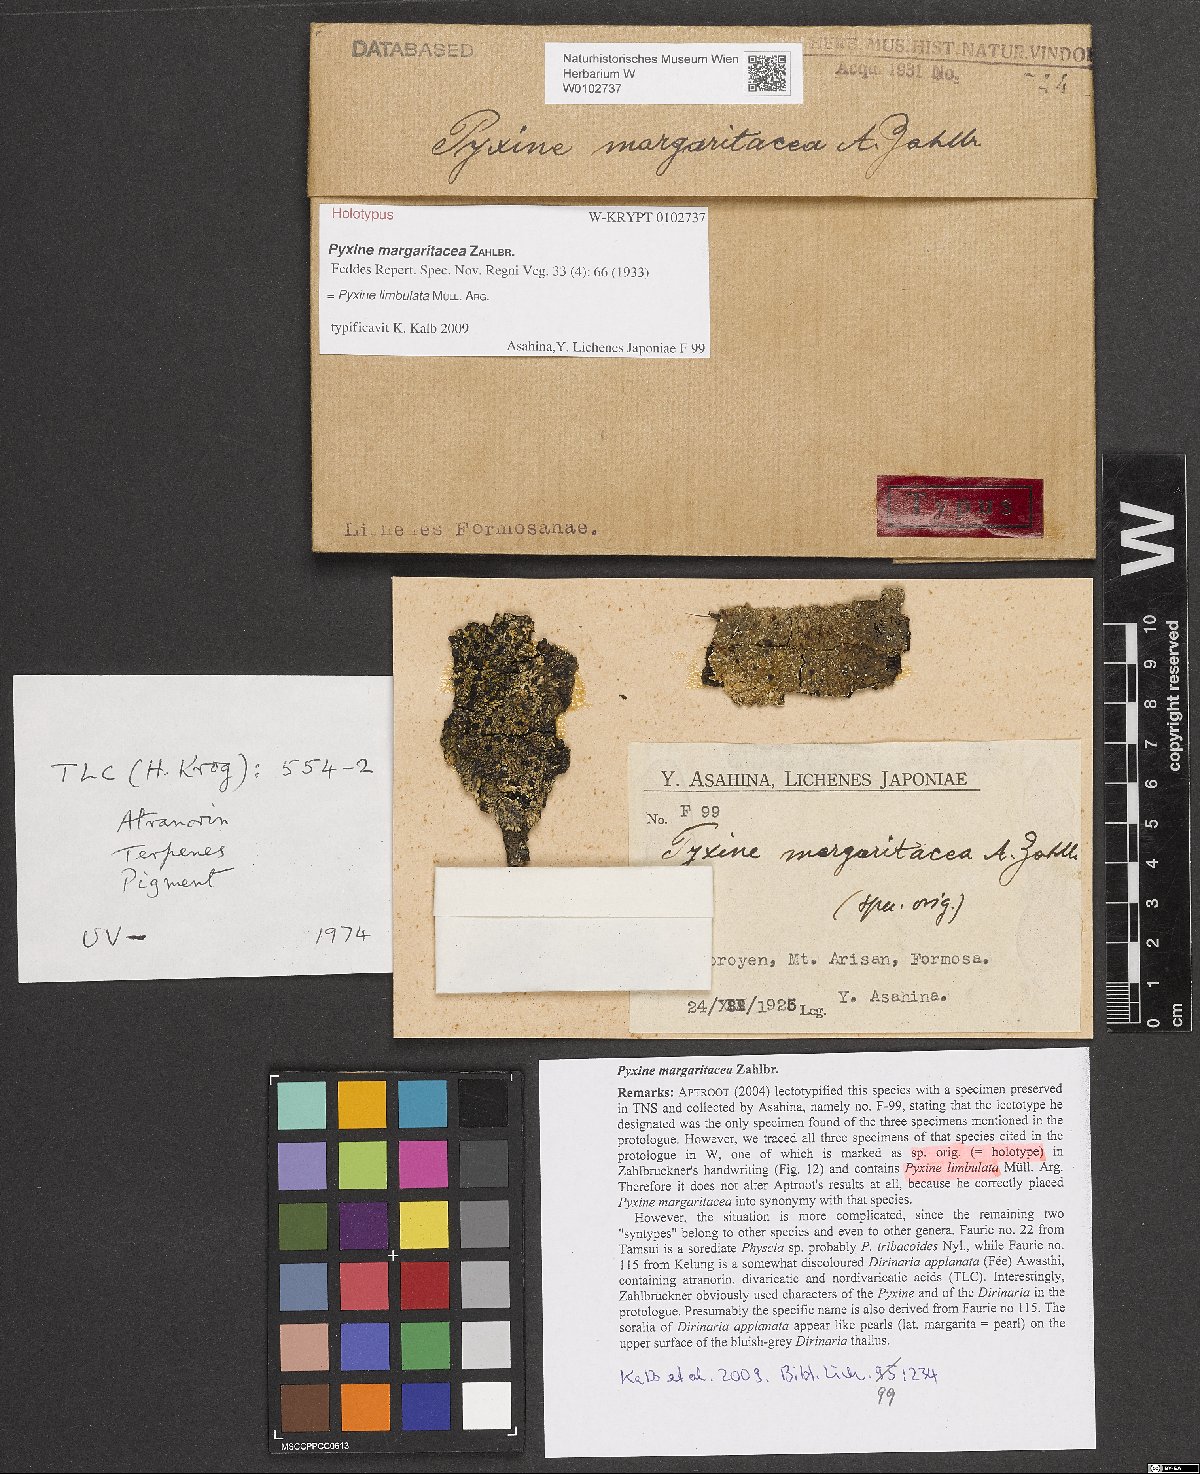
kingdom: Fungi
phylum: Ascomycota
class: Lecanoromycetes
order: Caliciales
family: Caliciaceae
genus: Pyxine
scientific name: Pyxine margaritacea
